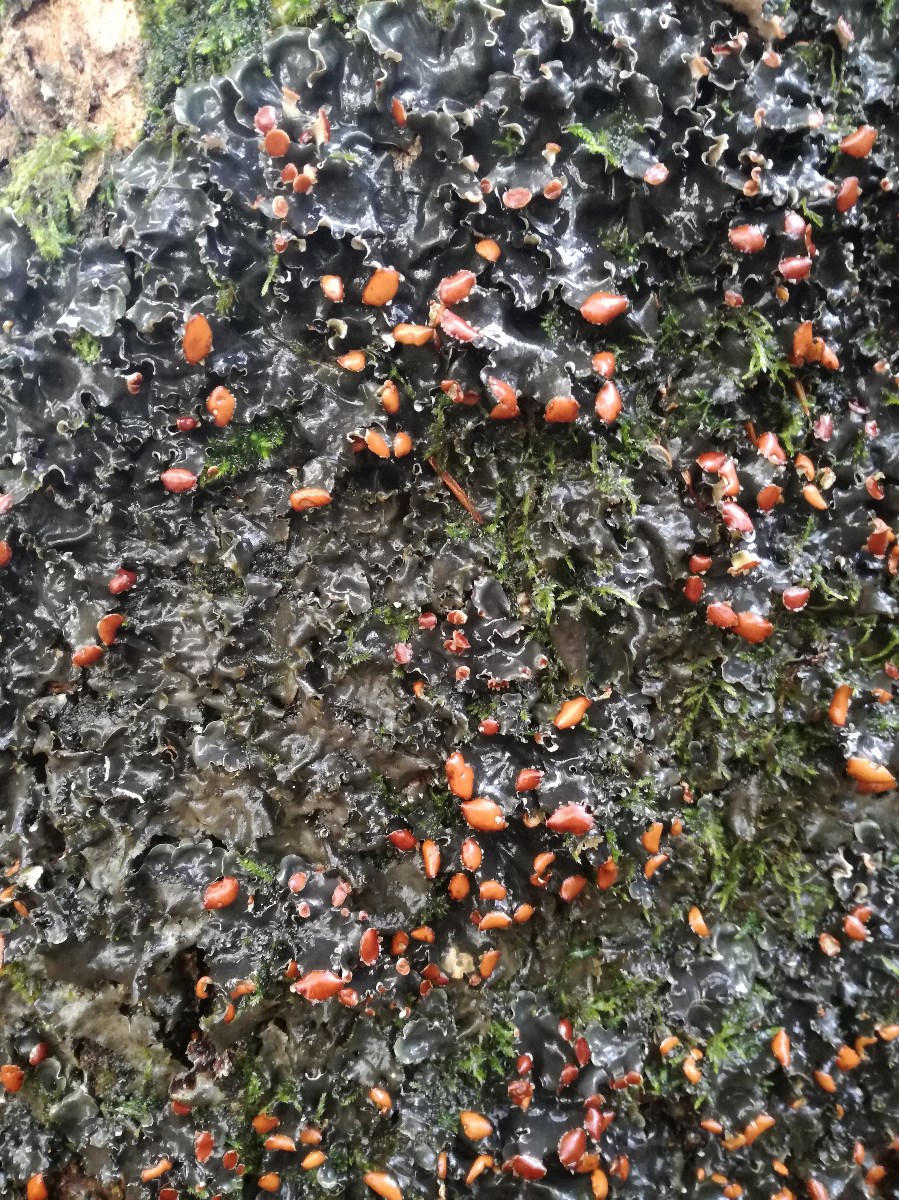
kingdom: Fungi
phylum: Ascomycota
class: Lecanoromycetes
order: Peltigerales
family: Peltigeraceae
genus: Peltigera
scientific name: Peltigera horizontalis
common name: blank skjoldlav
